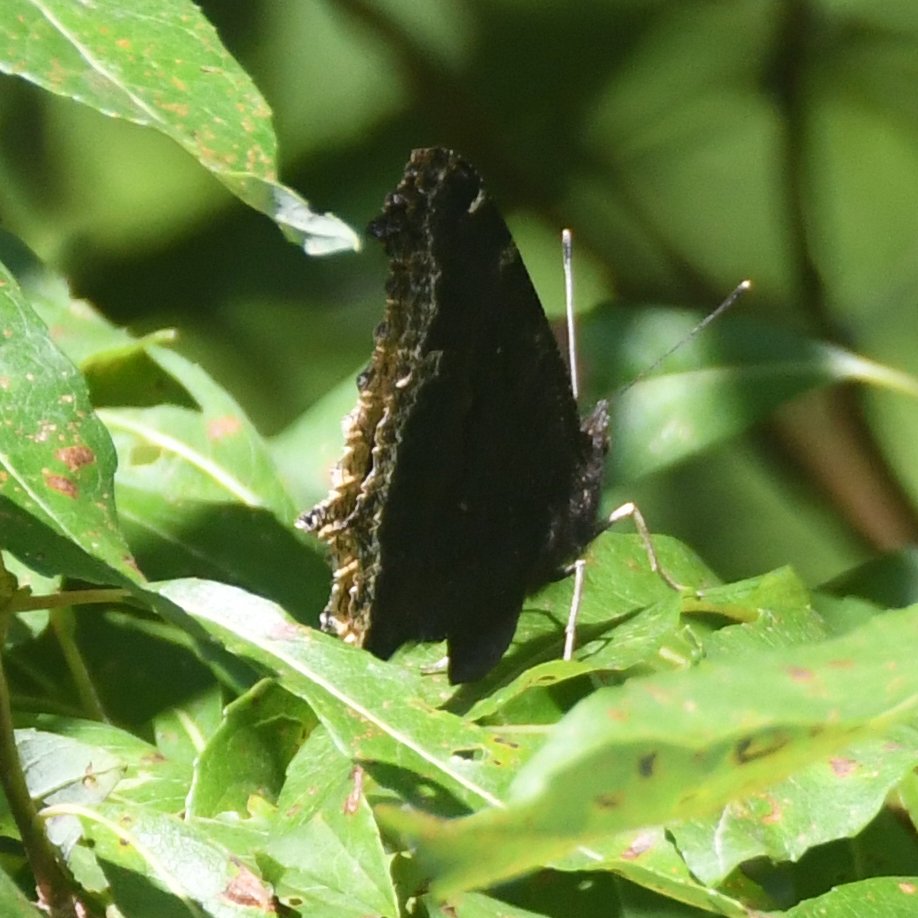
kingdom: Animalia
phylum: Arthropoda
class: Insecta
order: Lepidoptera
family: Nymphalidae
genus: Nymphalis
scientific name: Nymphalis antiopa
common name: Mourning Cloak
